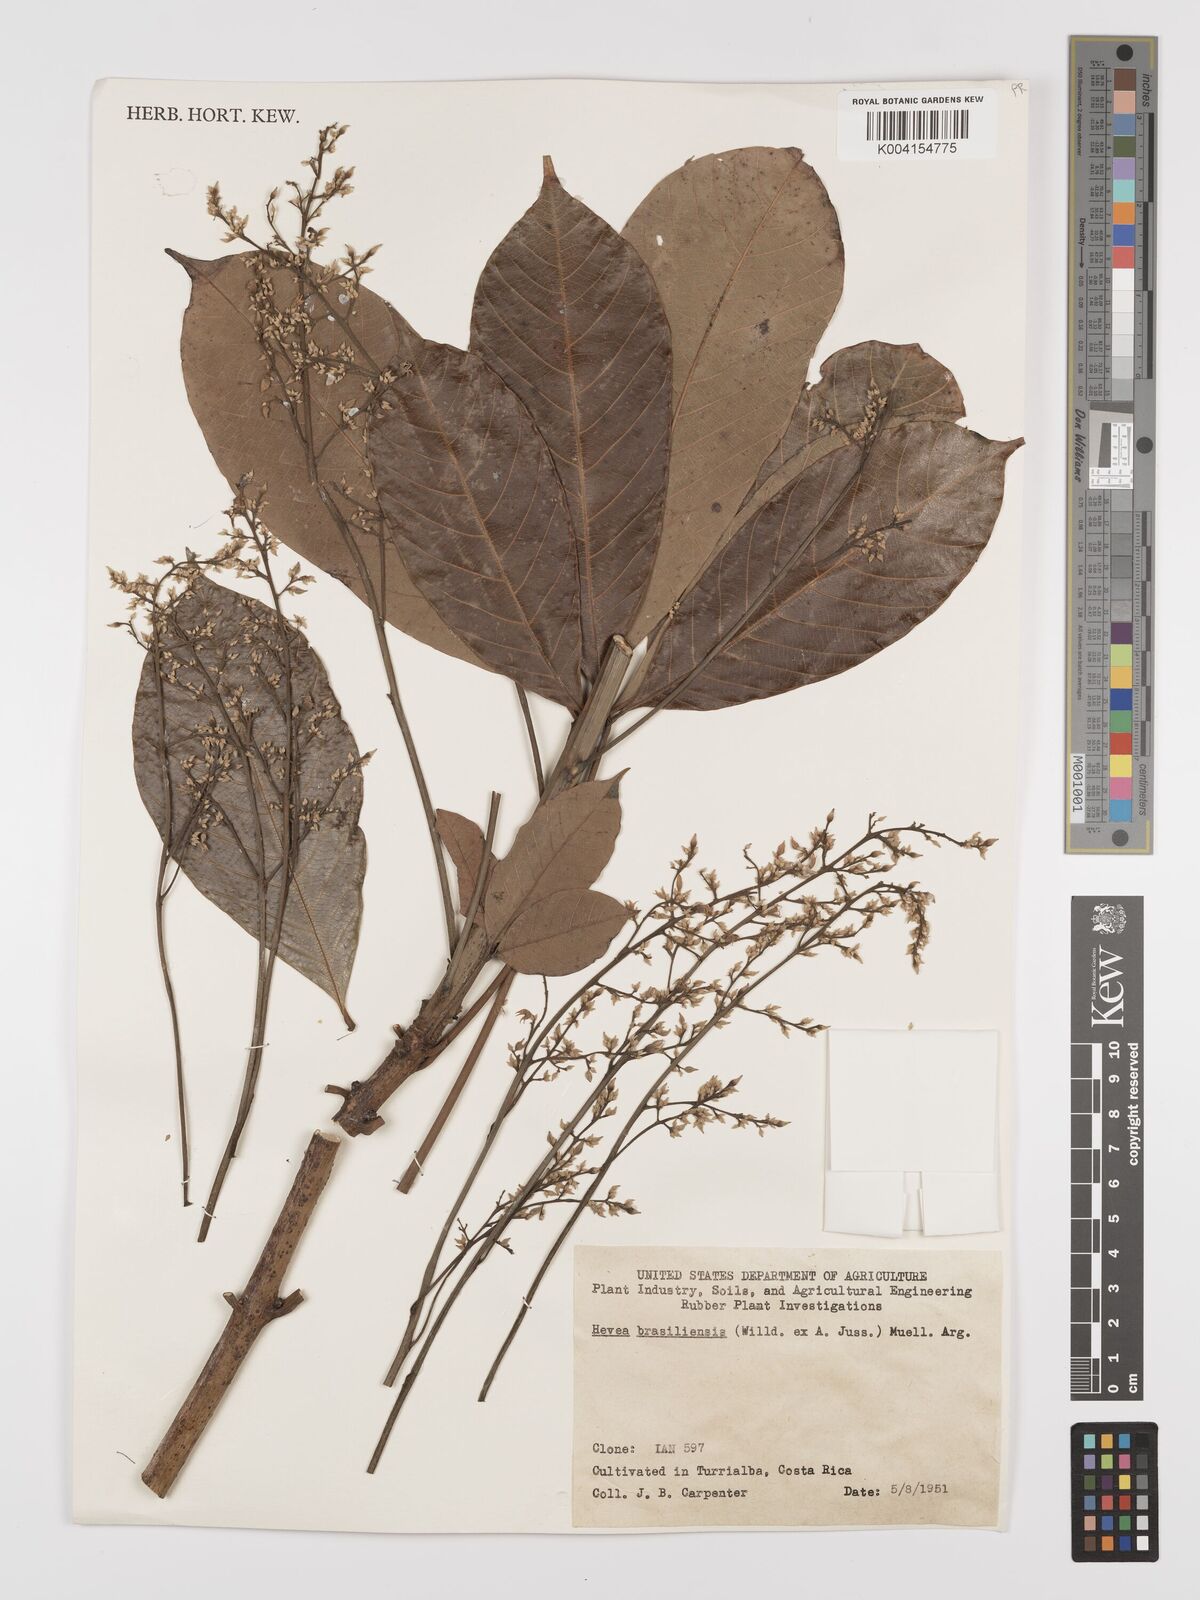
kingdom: Plantae
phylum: Tracheophyta
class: Magnoliopsida
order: Malpighiales
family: Euphorbiaceae
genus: Hevea
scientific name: Hevea brasiliensis
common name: Natural rubber
